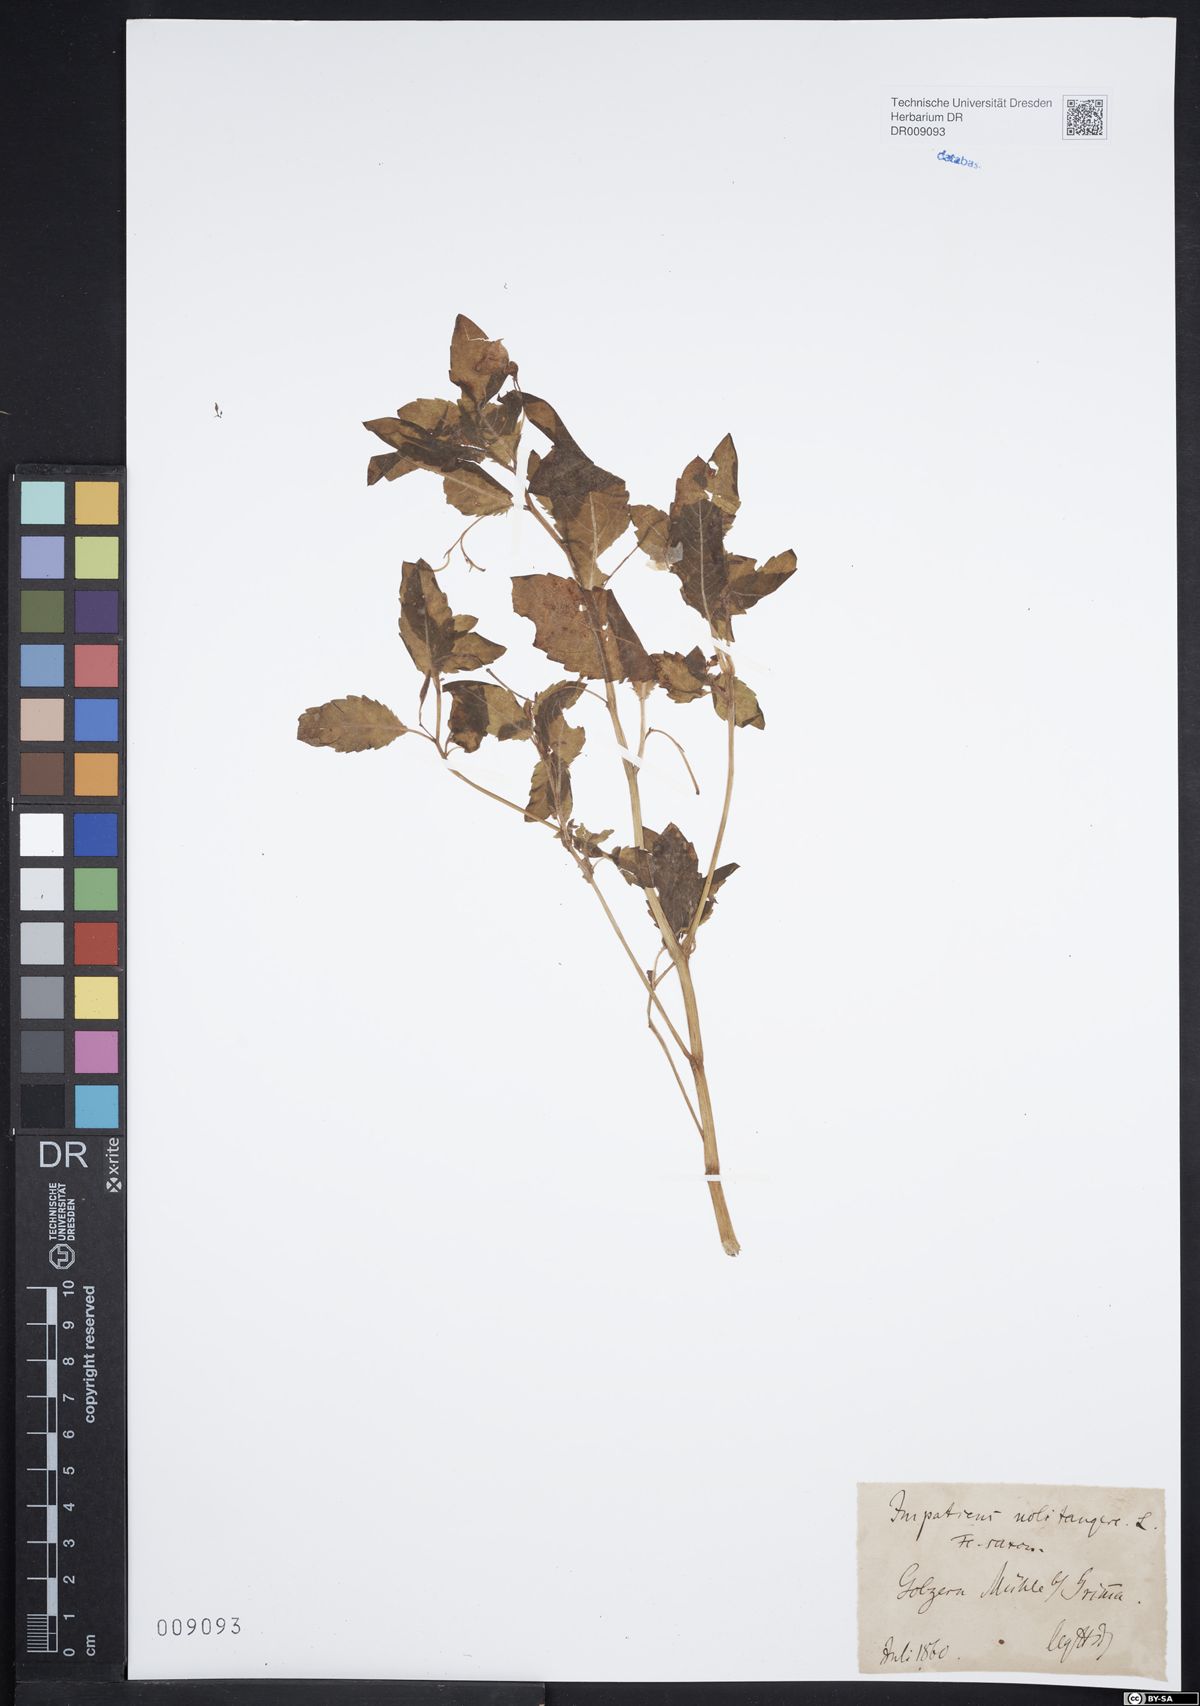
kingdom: Plantae
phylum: Tracheophyta
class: Magnoliopsida
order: Ericales
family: Balsaminaceae
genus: Impatiens
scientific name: Impatiens noli-tangere
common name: Touch-me-not balsam
